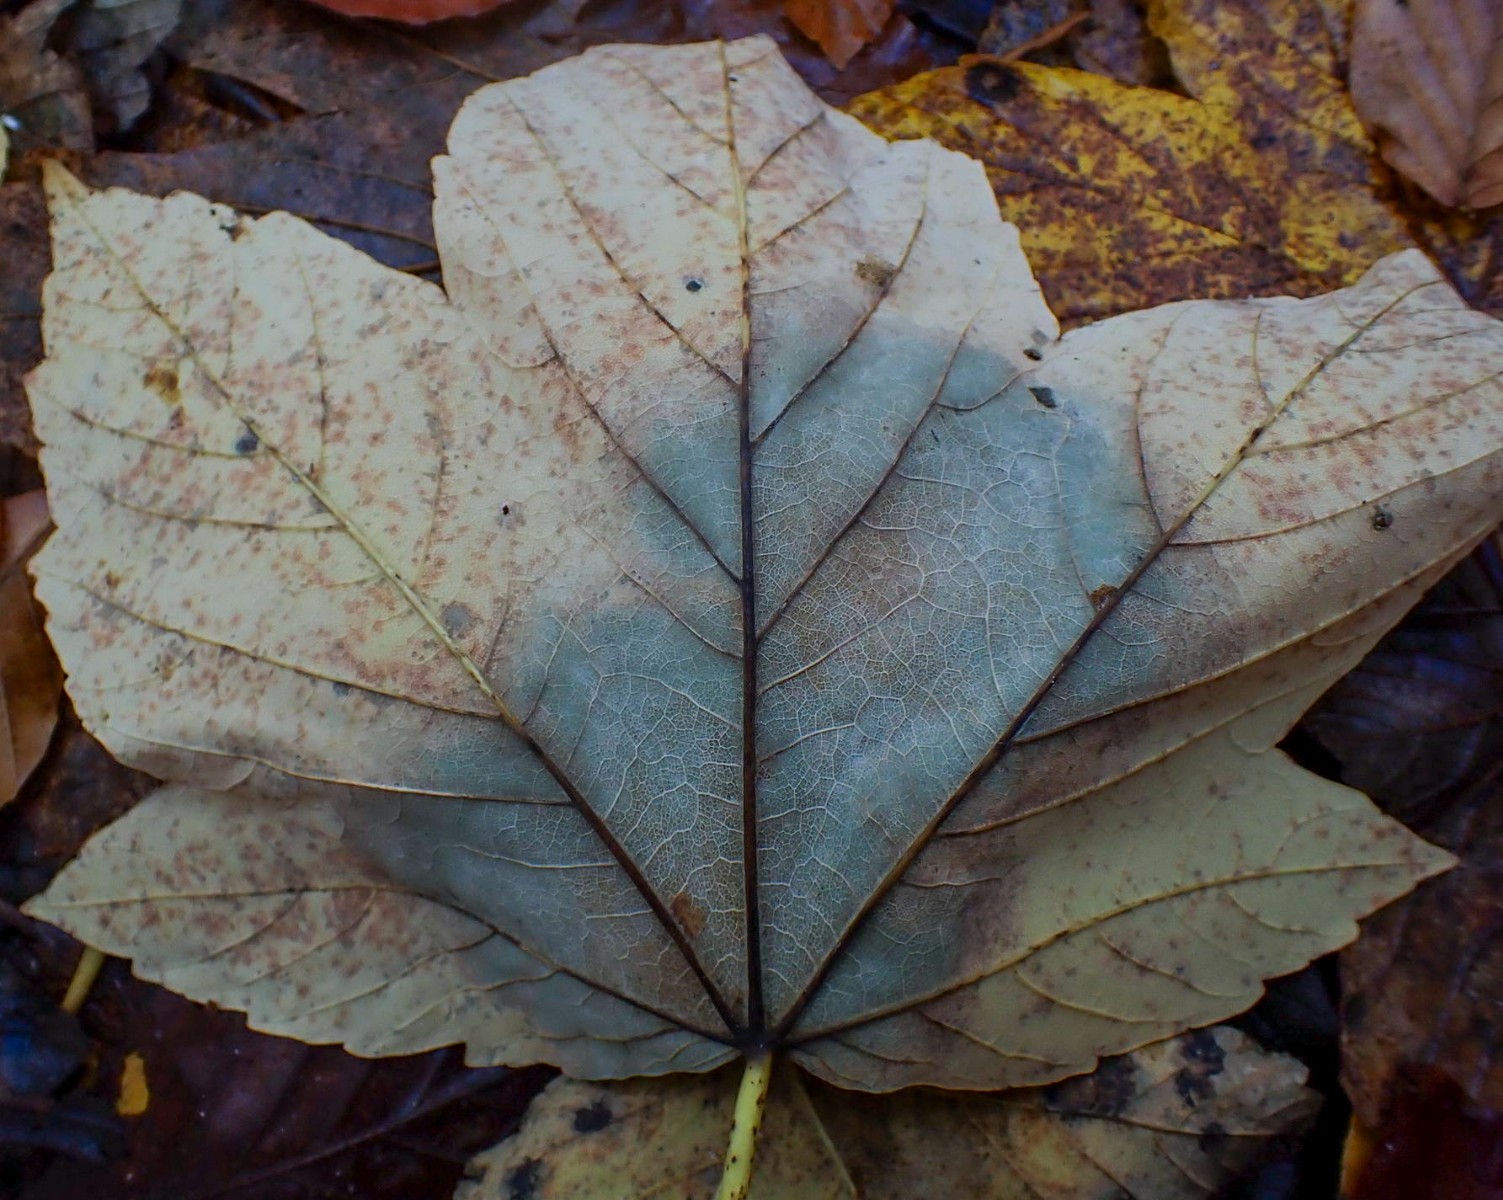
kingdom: Fungi
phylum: Ascomycota
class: Sordariomycetes
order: Diaporthales
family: Gnomoniaceae
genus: Pleuroceras
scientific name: Pleuroceras pseudoplatani
